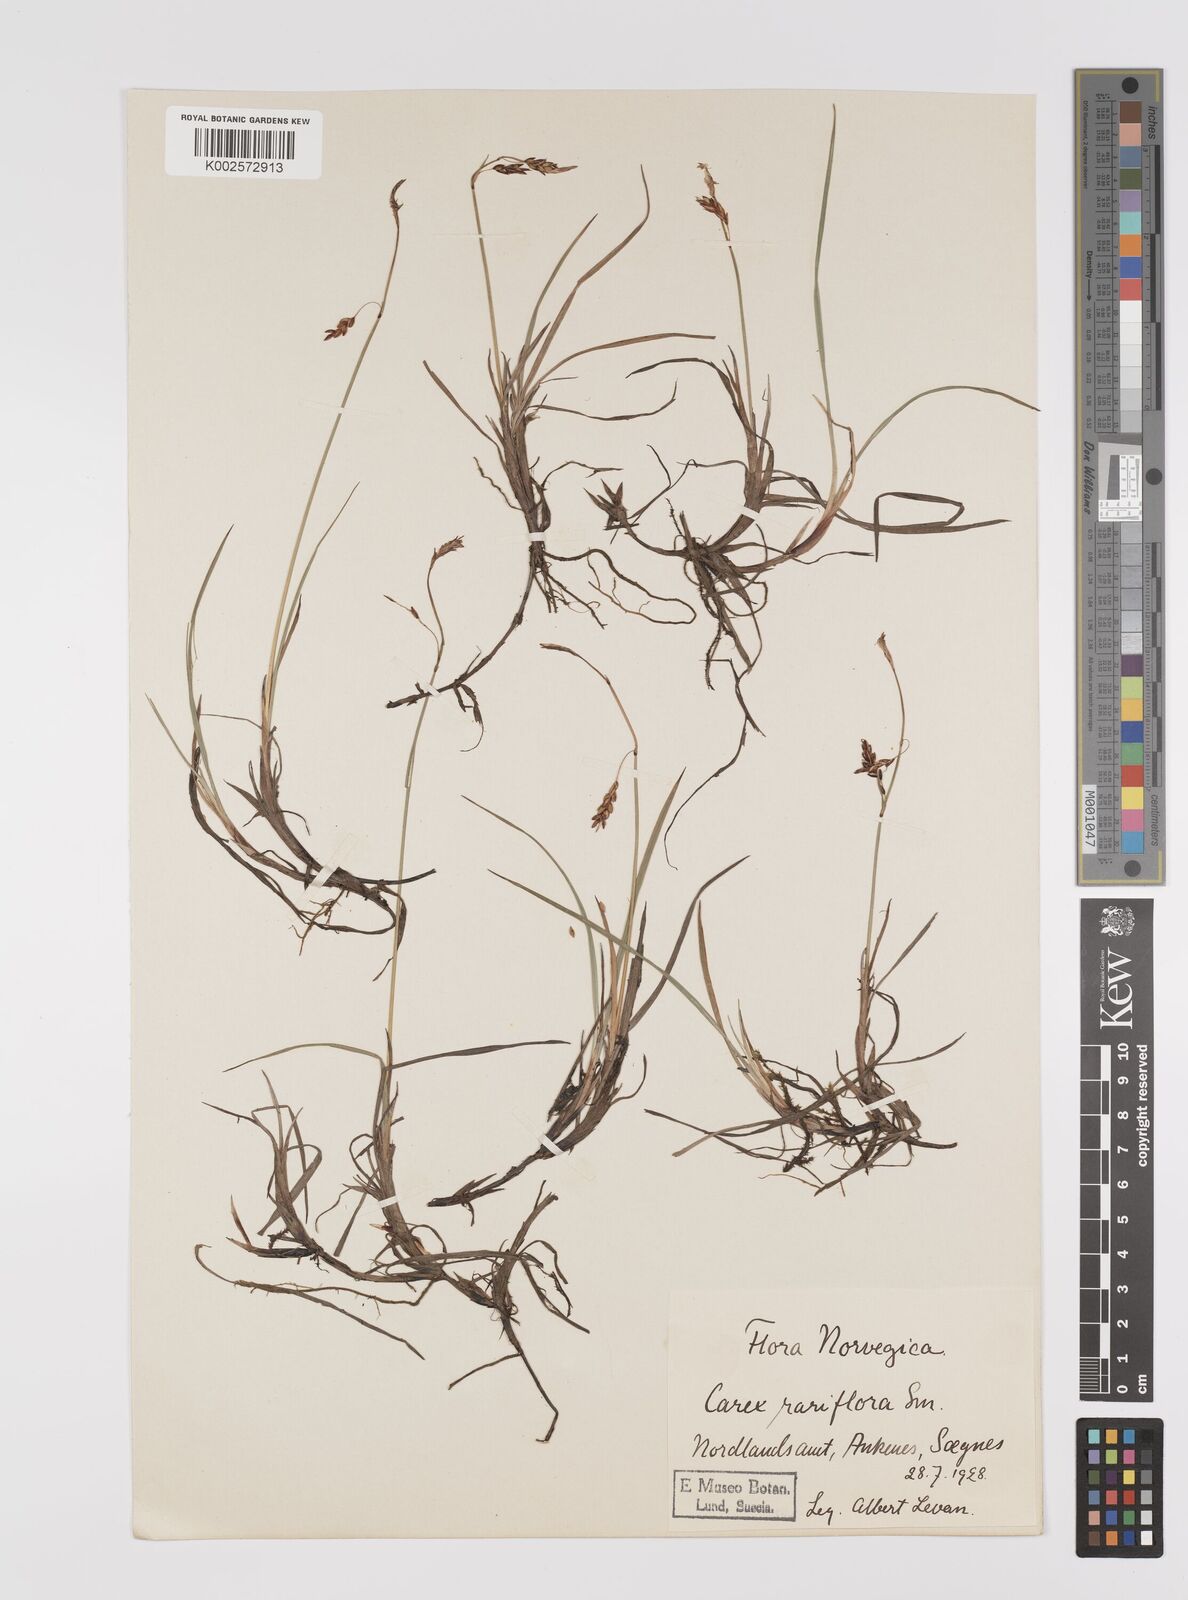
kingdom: Plantae
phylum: Tracheophyta
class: Liliopsida
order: Poales
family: Cyperaceae
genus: Carex
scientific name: Carex rariflora
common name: Loose-flowered alpine sedge
